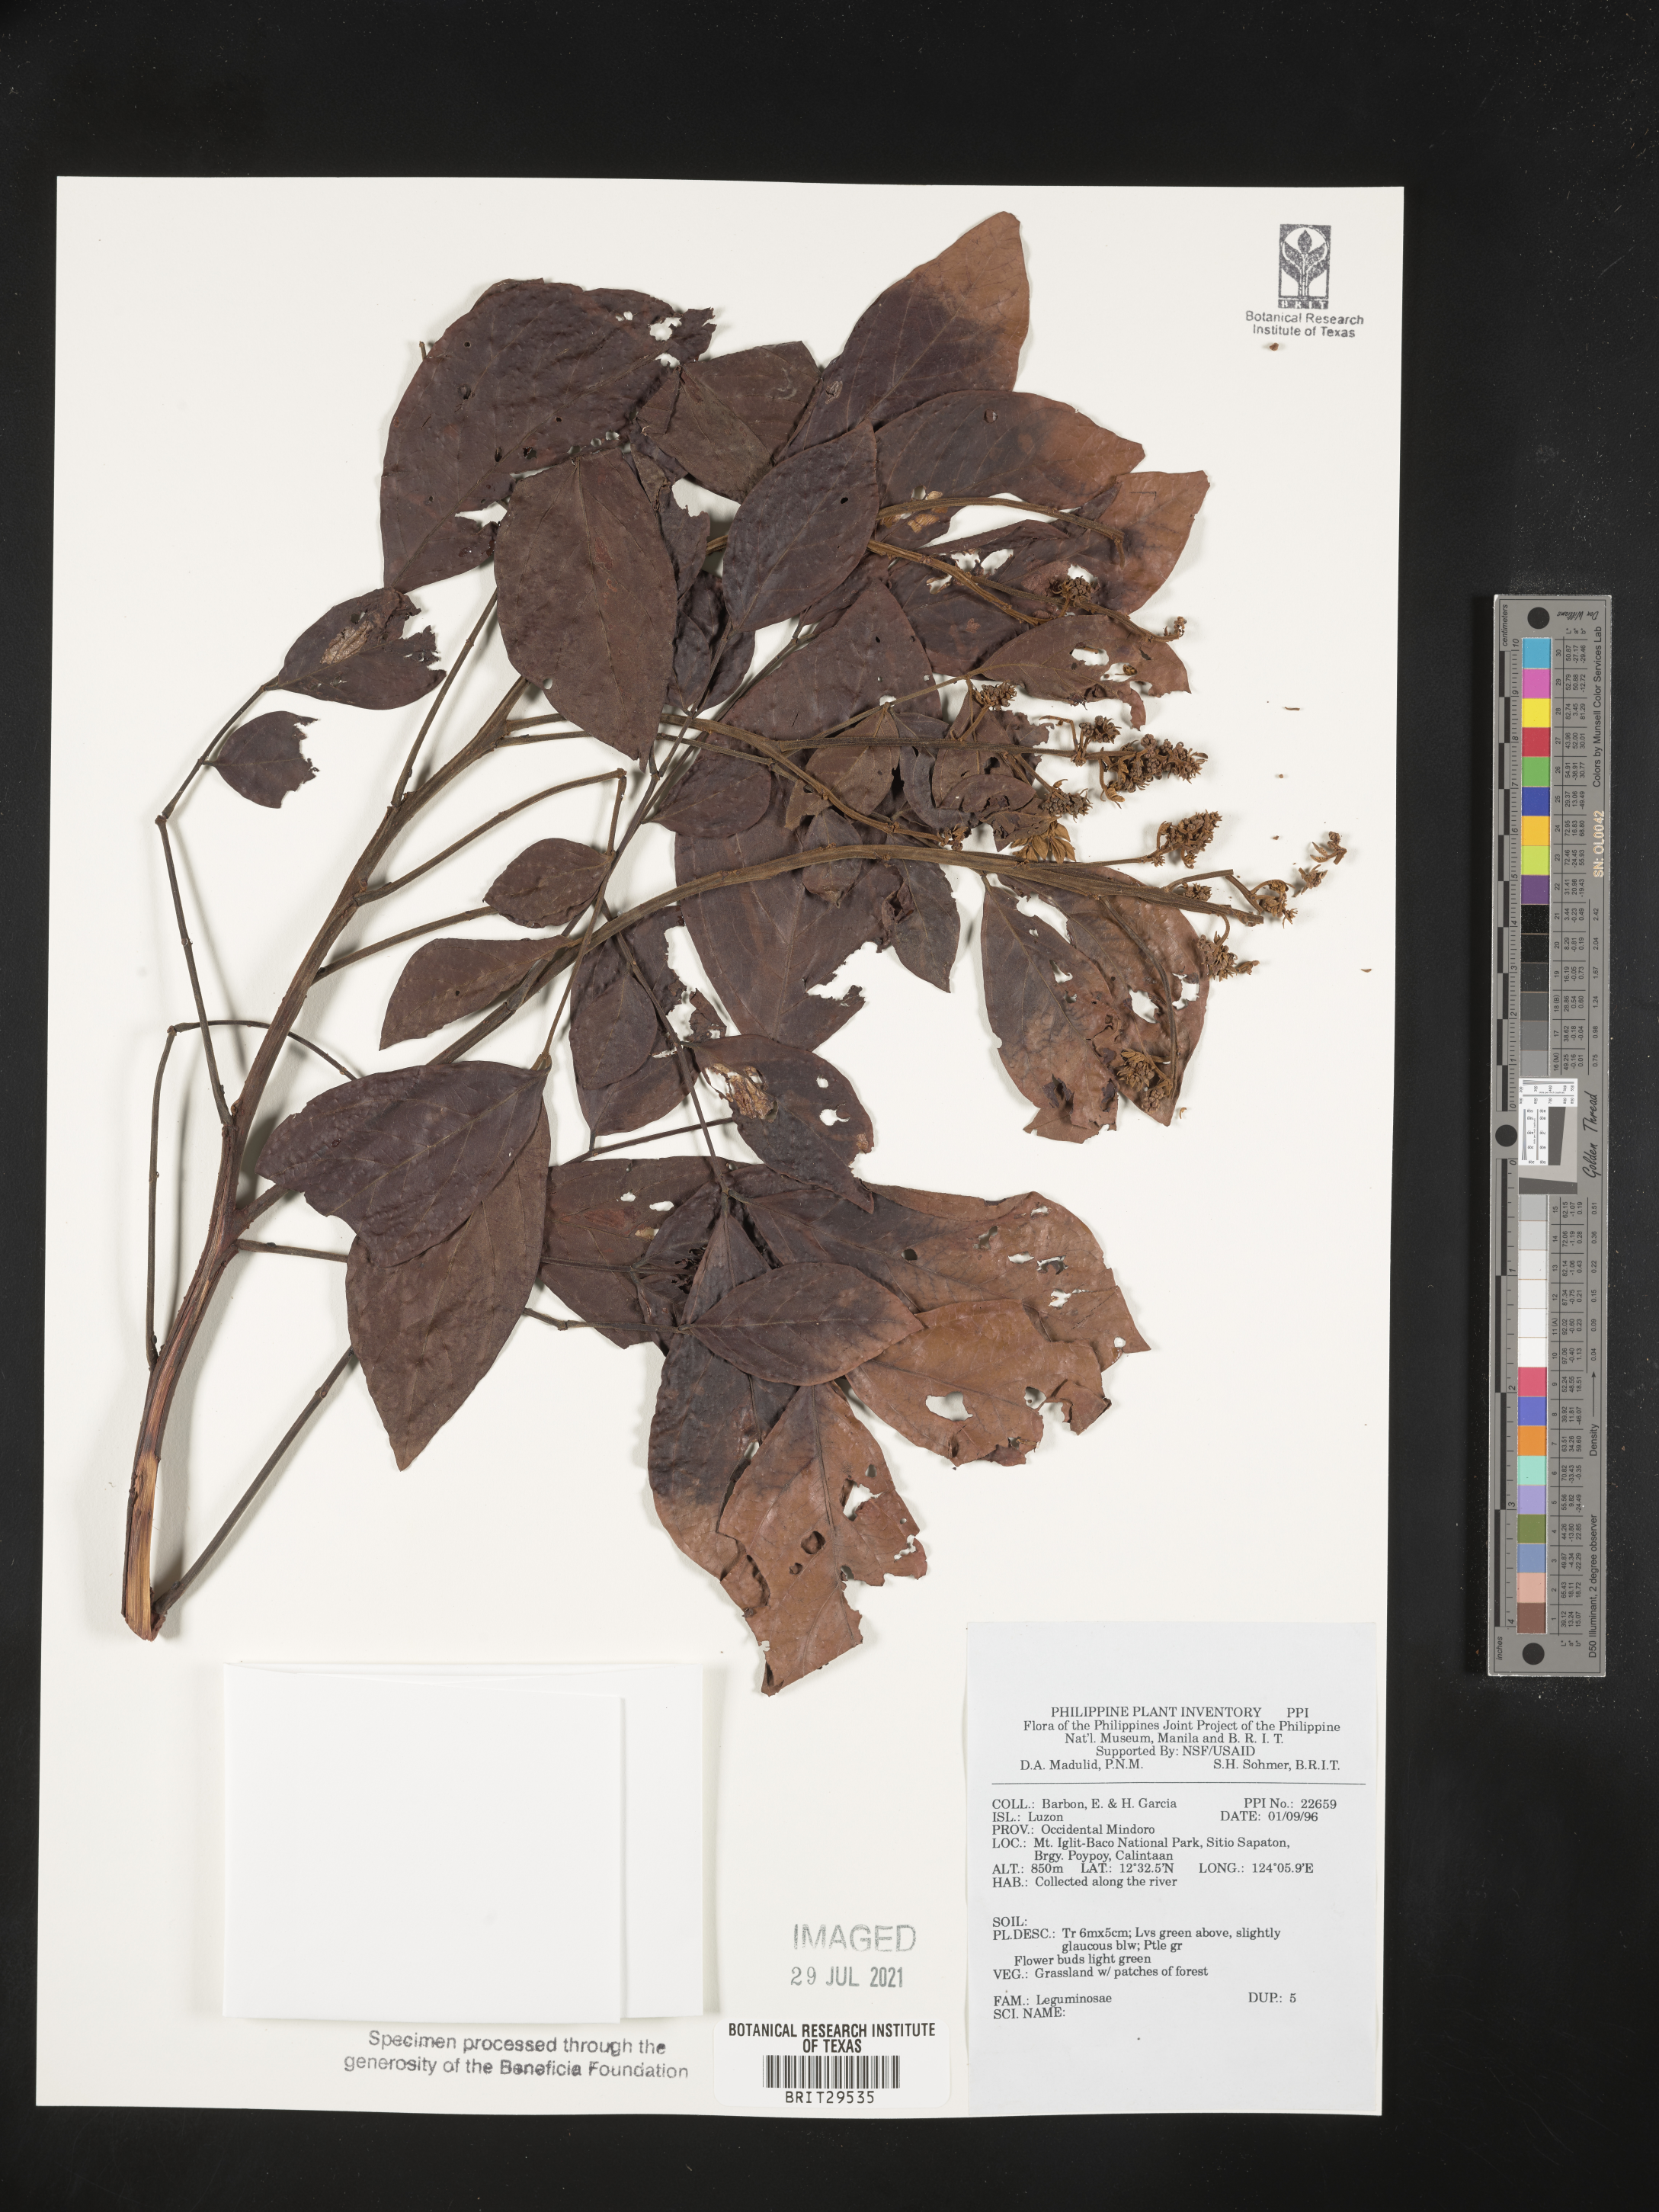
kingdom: Plantae
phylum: Tracheophyta
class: Magnoliopsida
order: Fabales
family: Fabaceae
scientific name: Fabaceae
